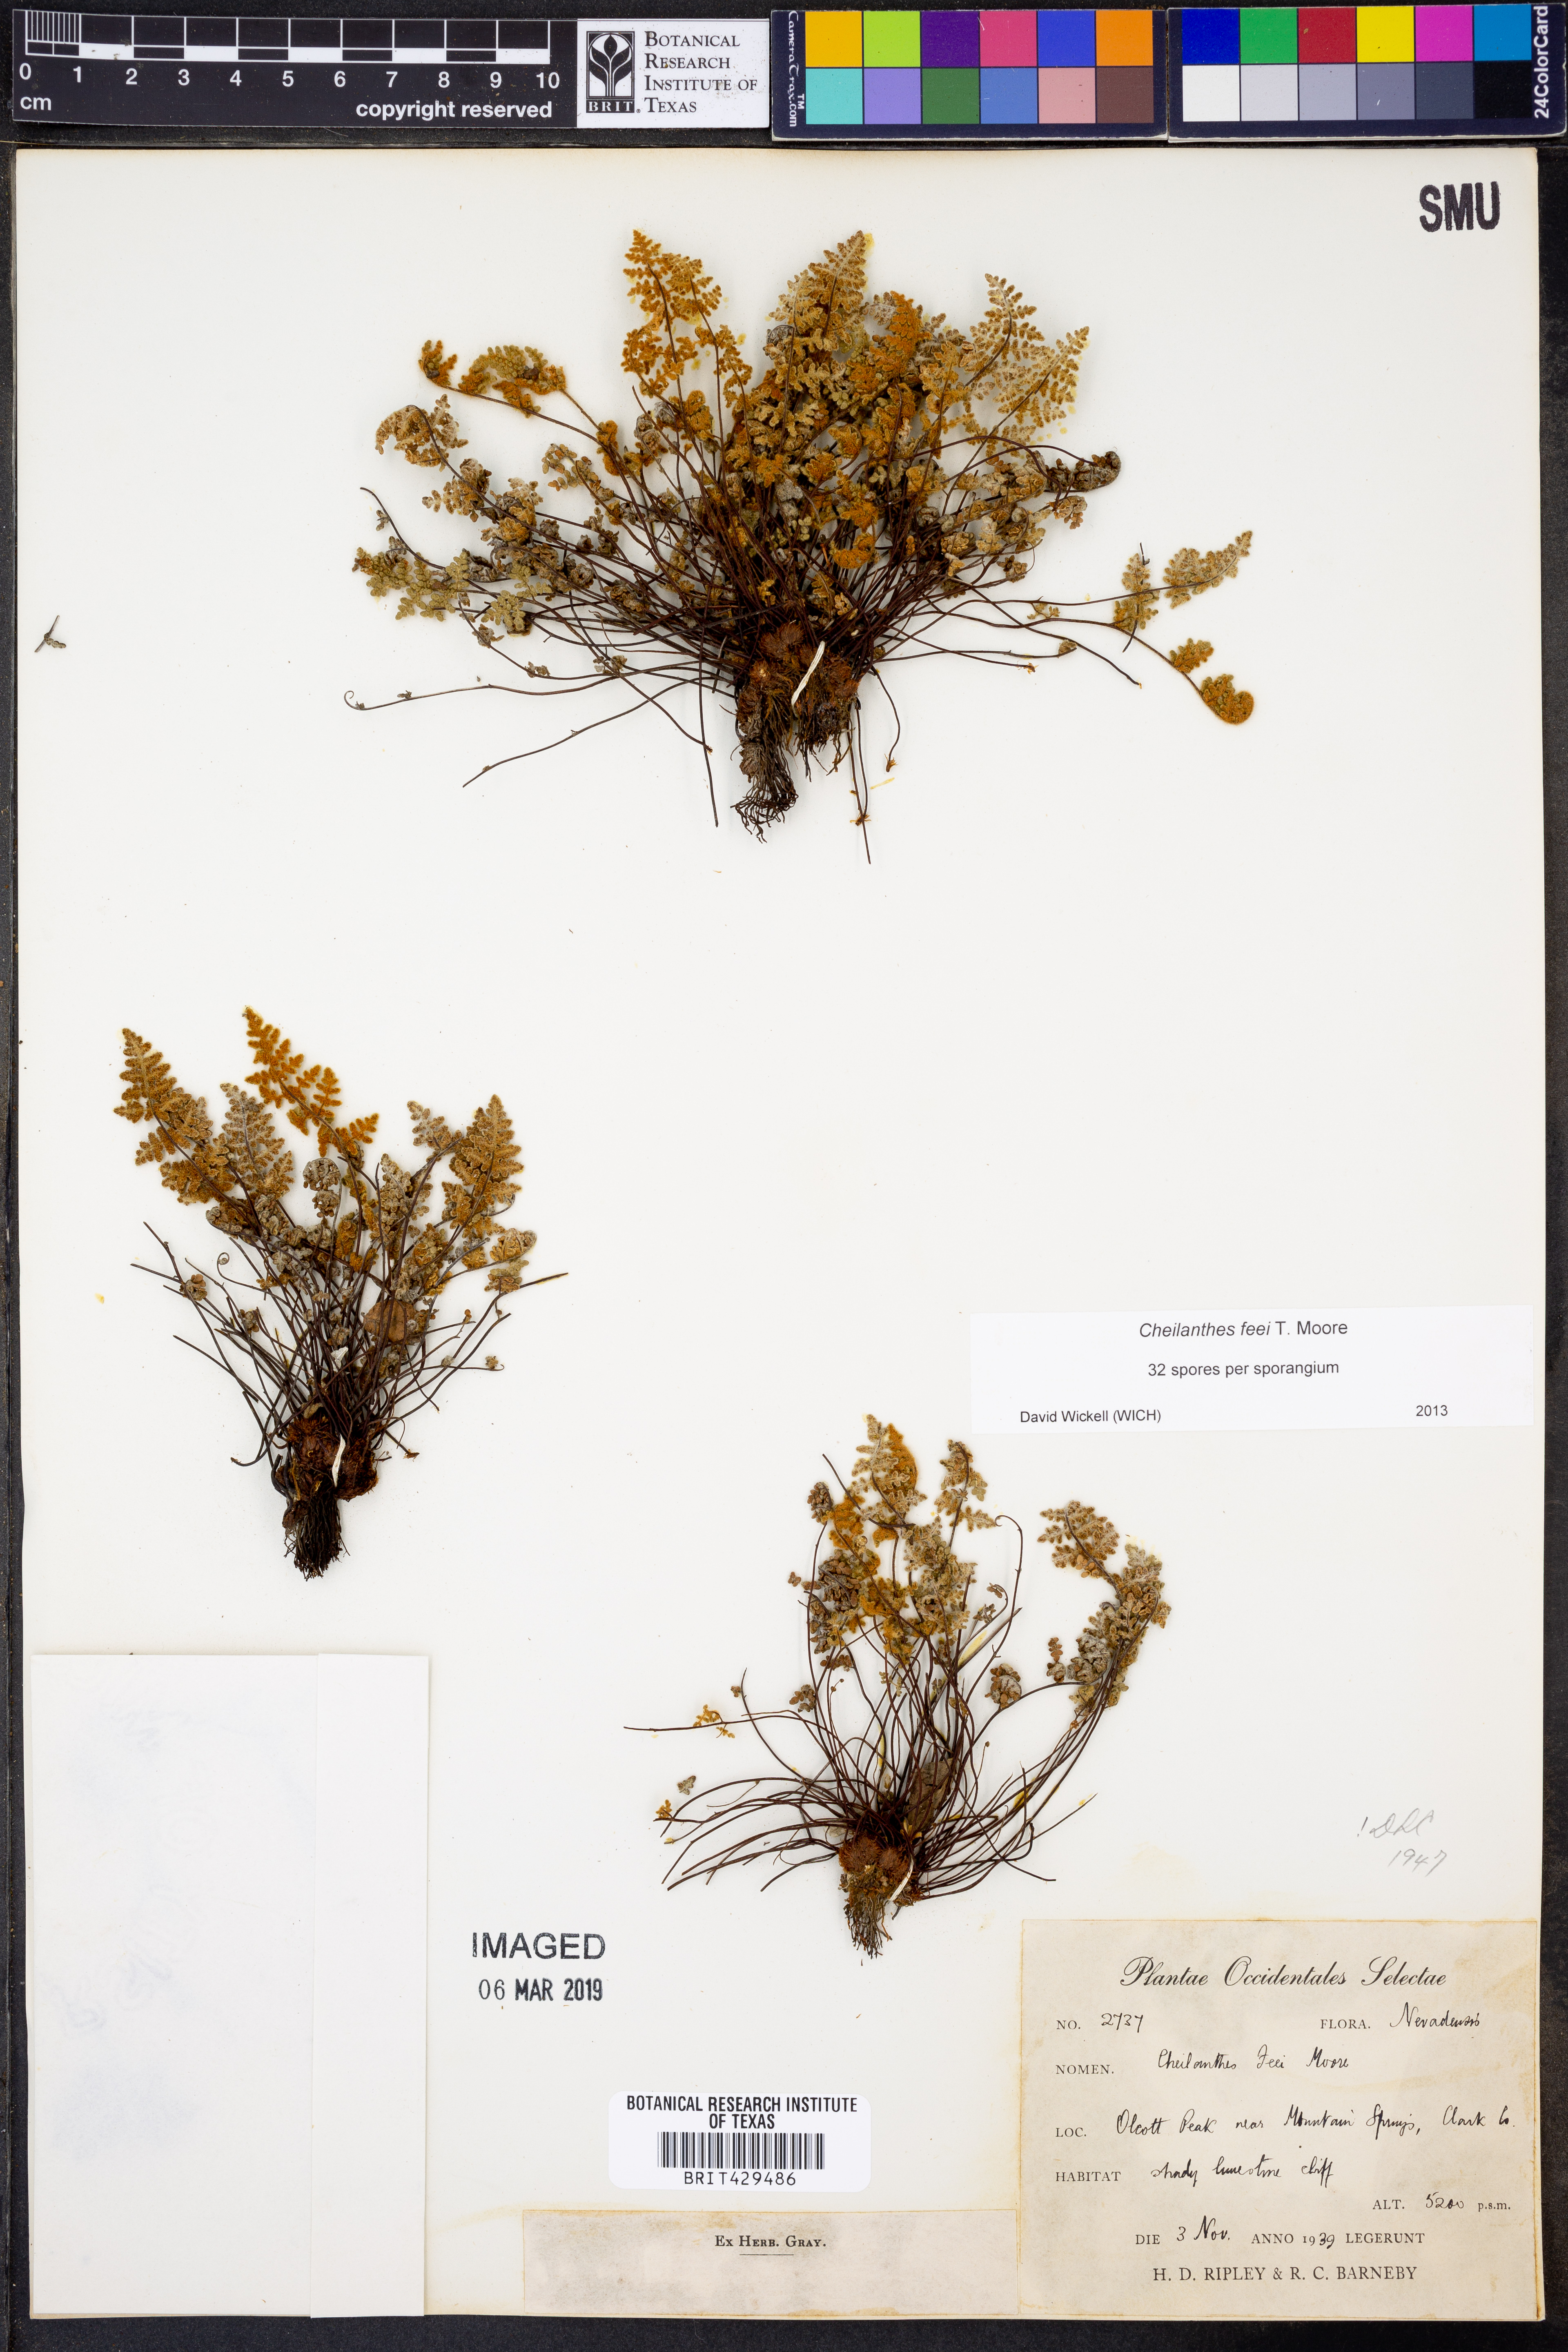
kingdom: Plantae
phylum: Tracheophyta
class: Polypodiopsida
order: Polypodiales
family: Pteridaceae
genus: Myriopteris
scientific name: Myriopteris gracilis
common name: Fee's lip fern
